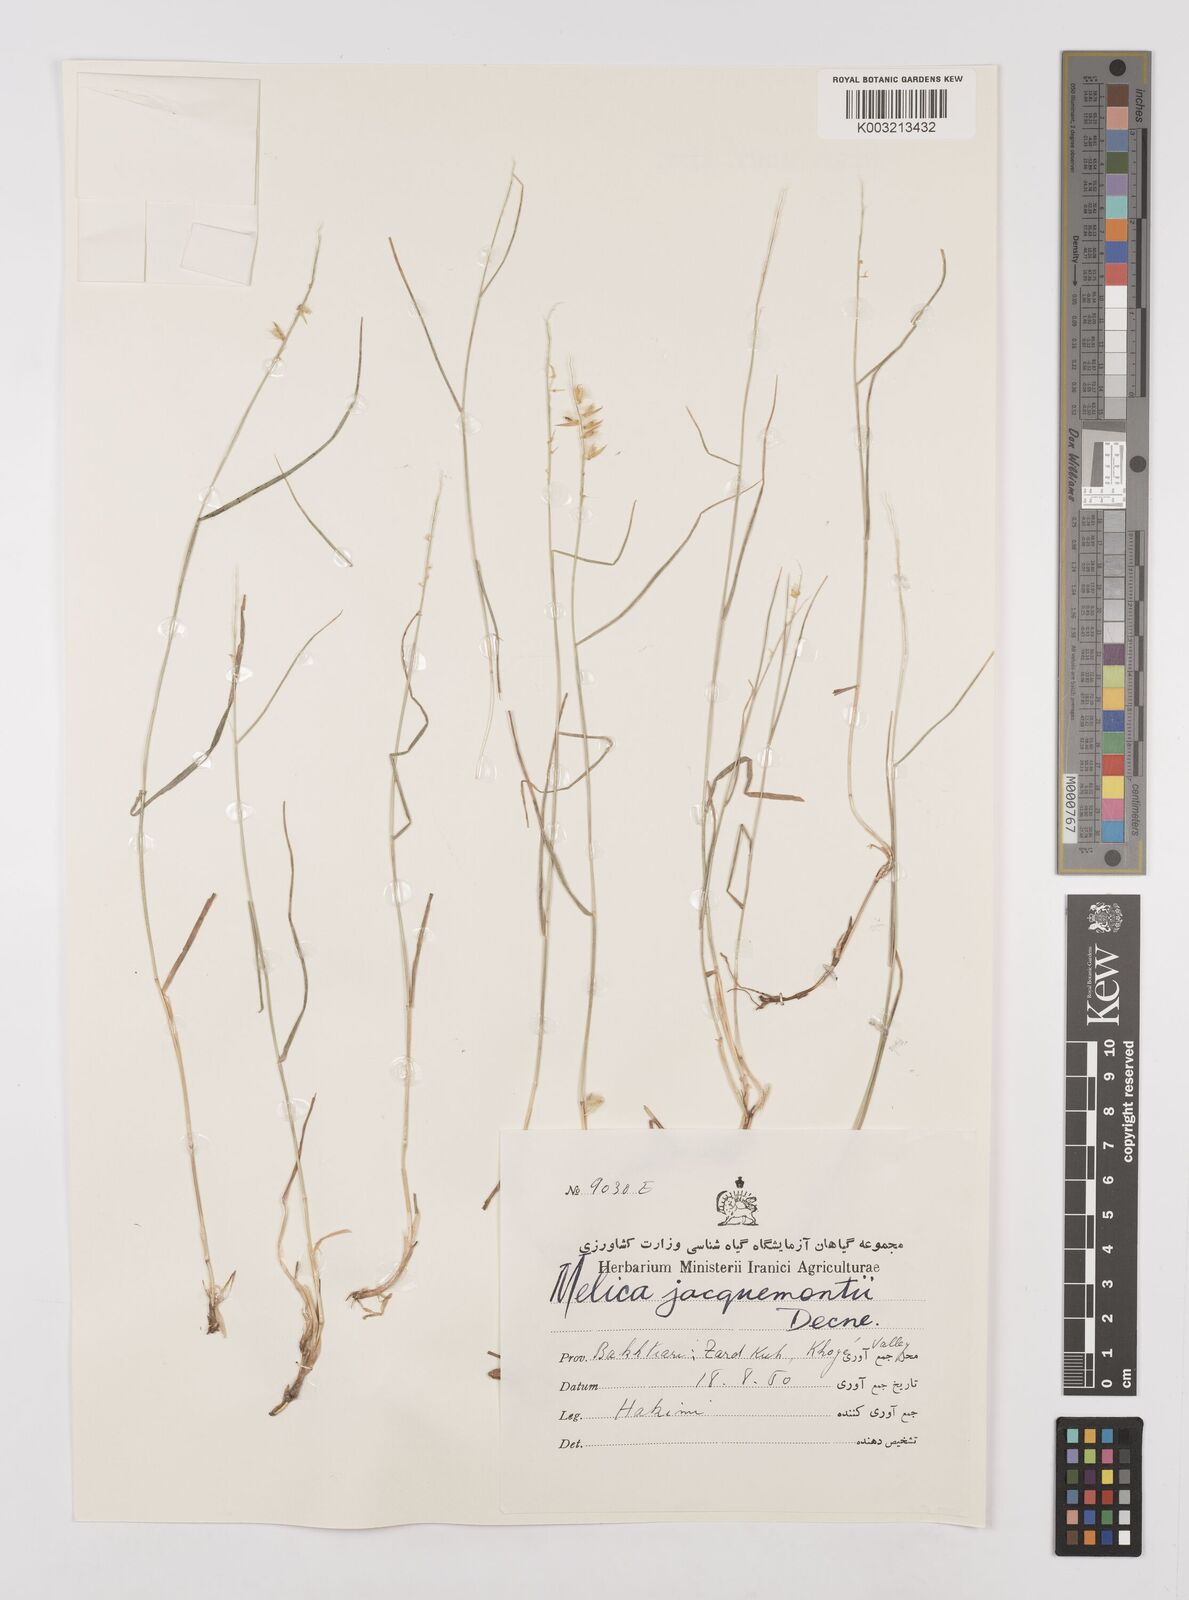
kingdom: Plantae
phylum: Tracheophyta
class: Liliopsida
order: Poales
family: Poaceae
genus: Melica
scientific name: Melica persica
